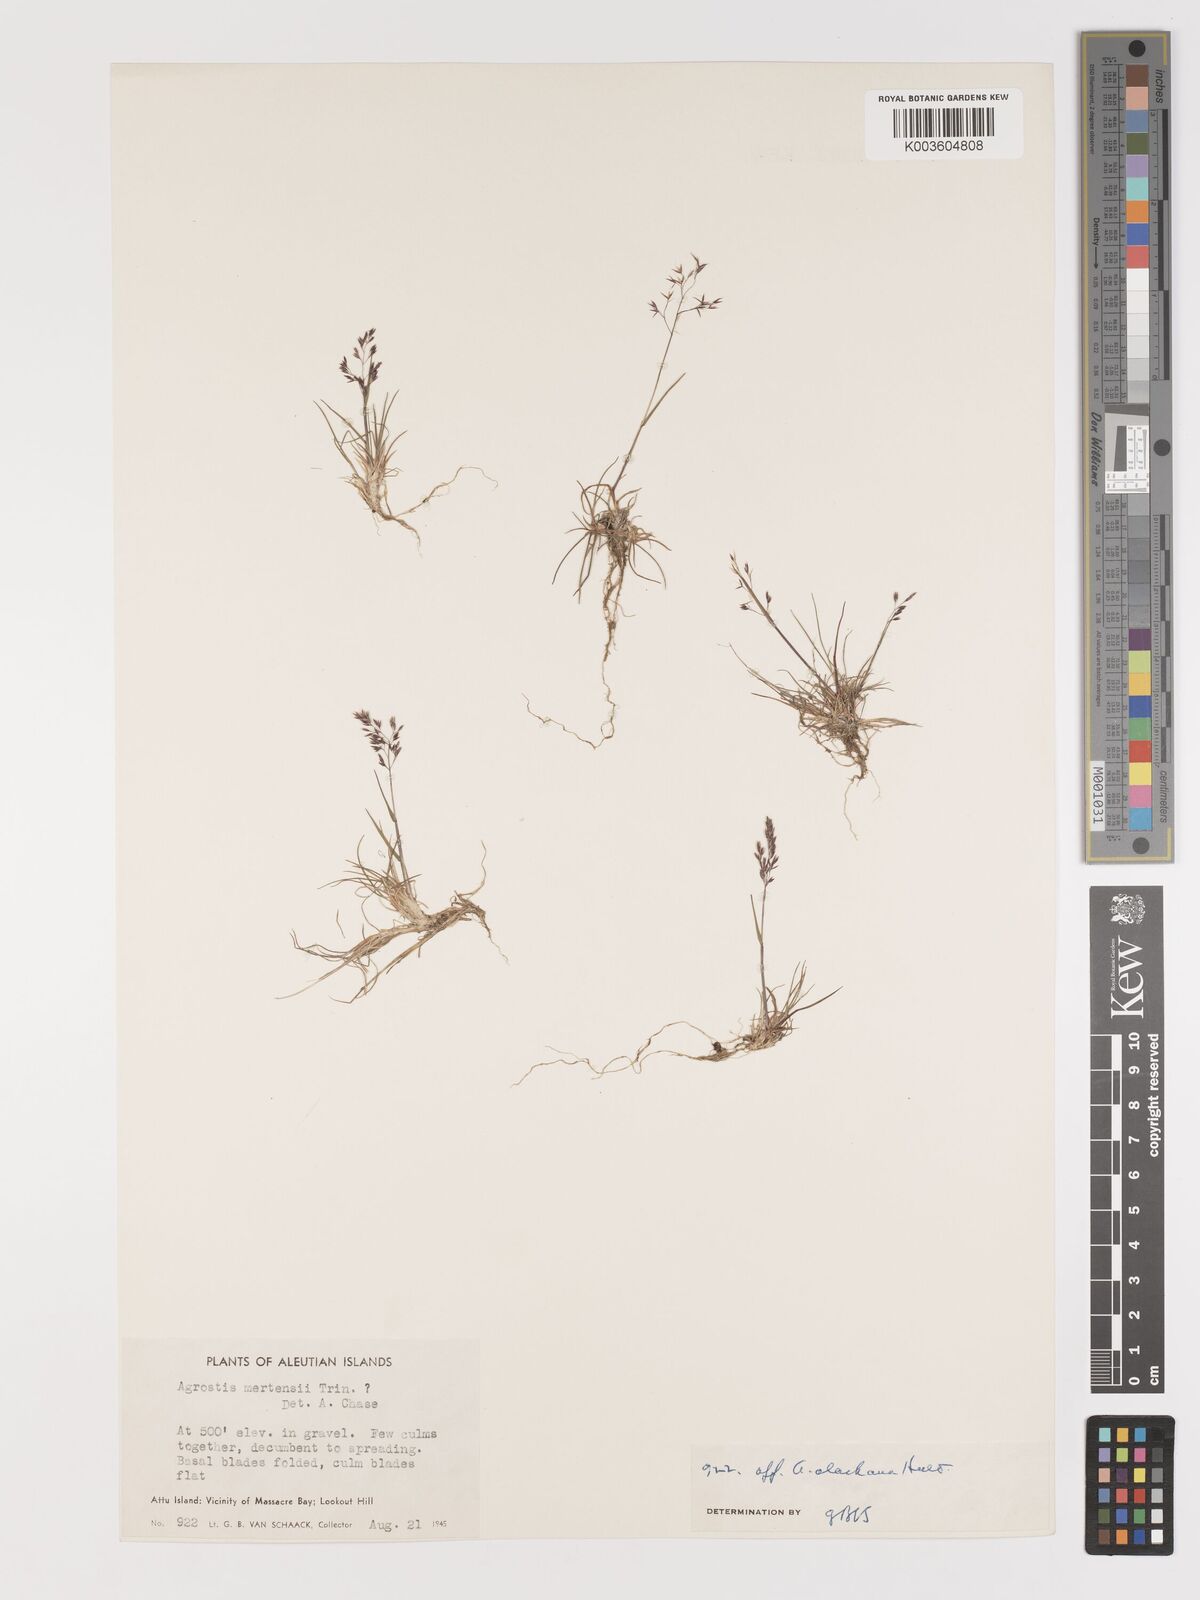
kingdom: Plantae
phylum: Tracheophyta
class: Liliopsida
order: Poales
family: Poaceae
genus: Agrostis
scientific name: Agrostis
